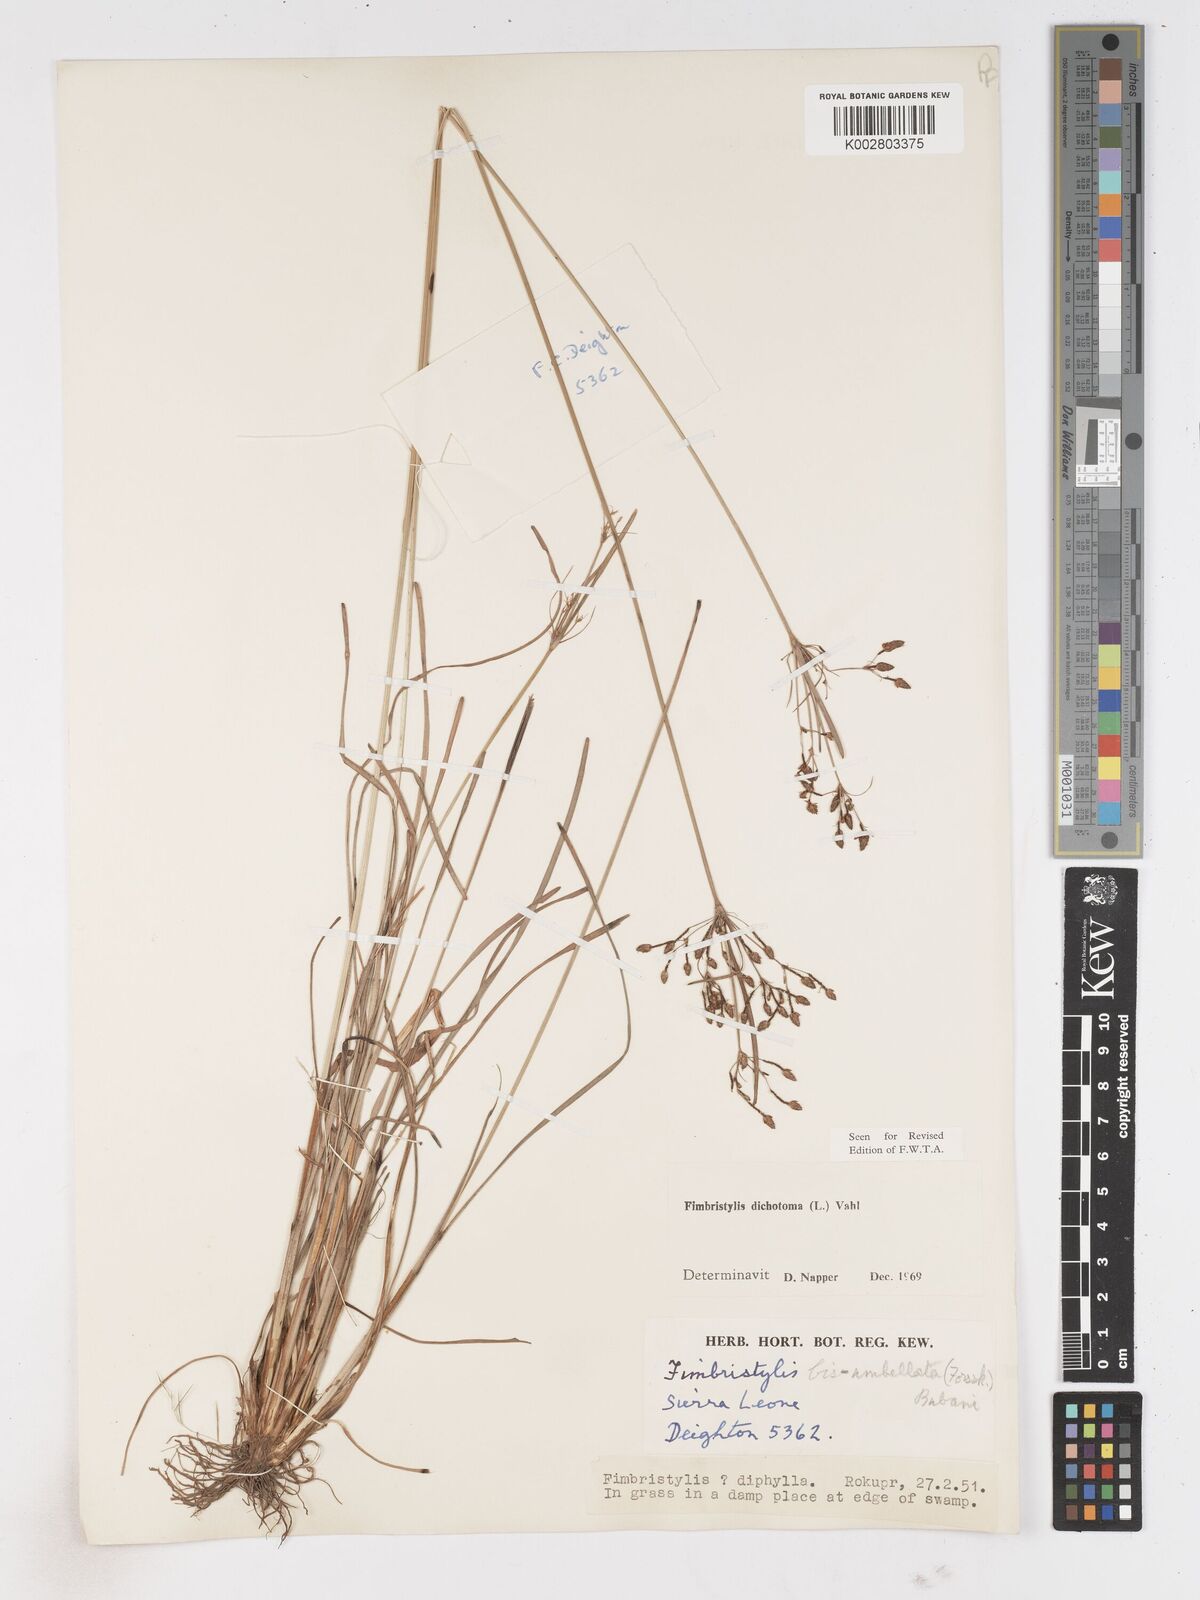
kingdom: Plantae
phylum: Tracheophyta
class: Liliopsida
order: Poales
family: Cyperaceae
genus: Fimbristylis
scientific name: Fimbristylis dichotoma
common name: Forked fimbry
